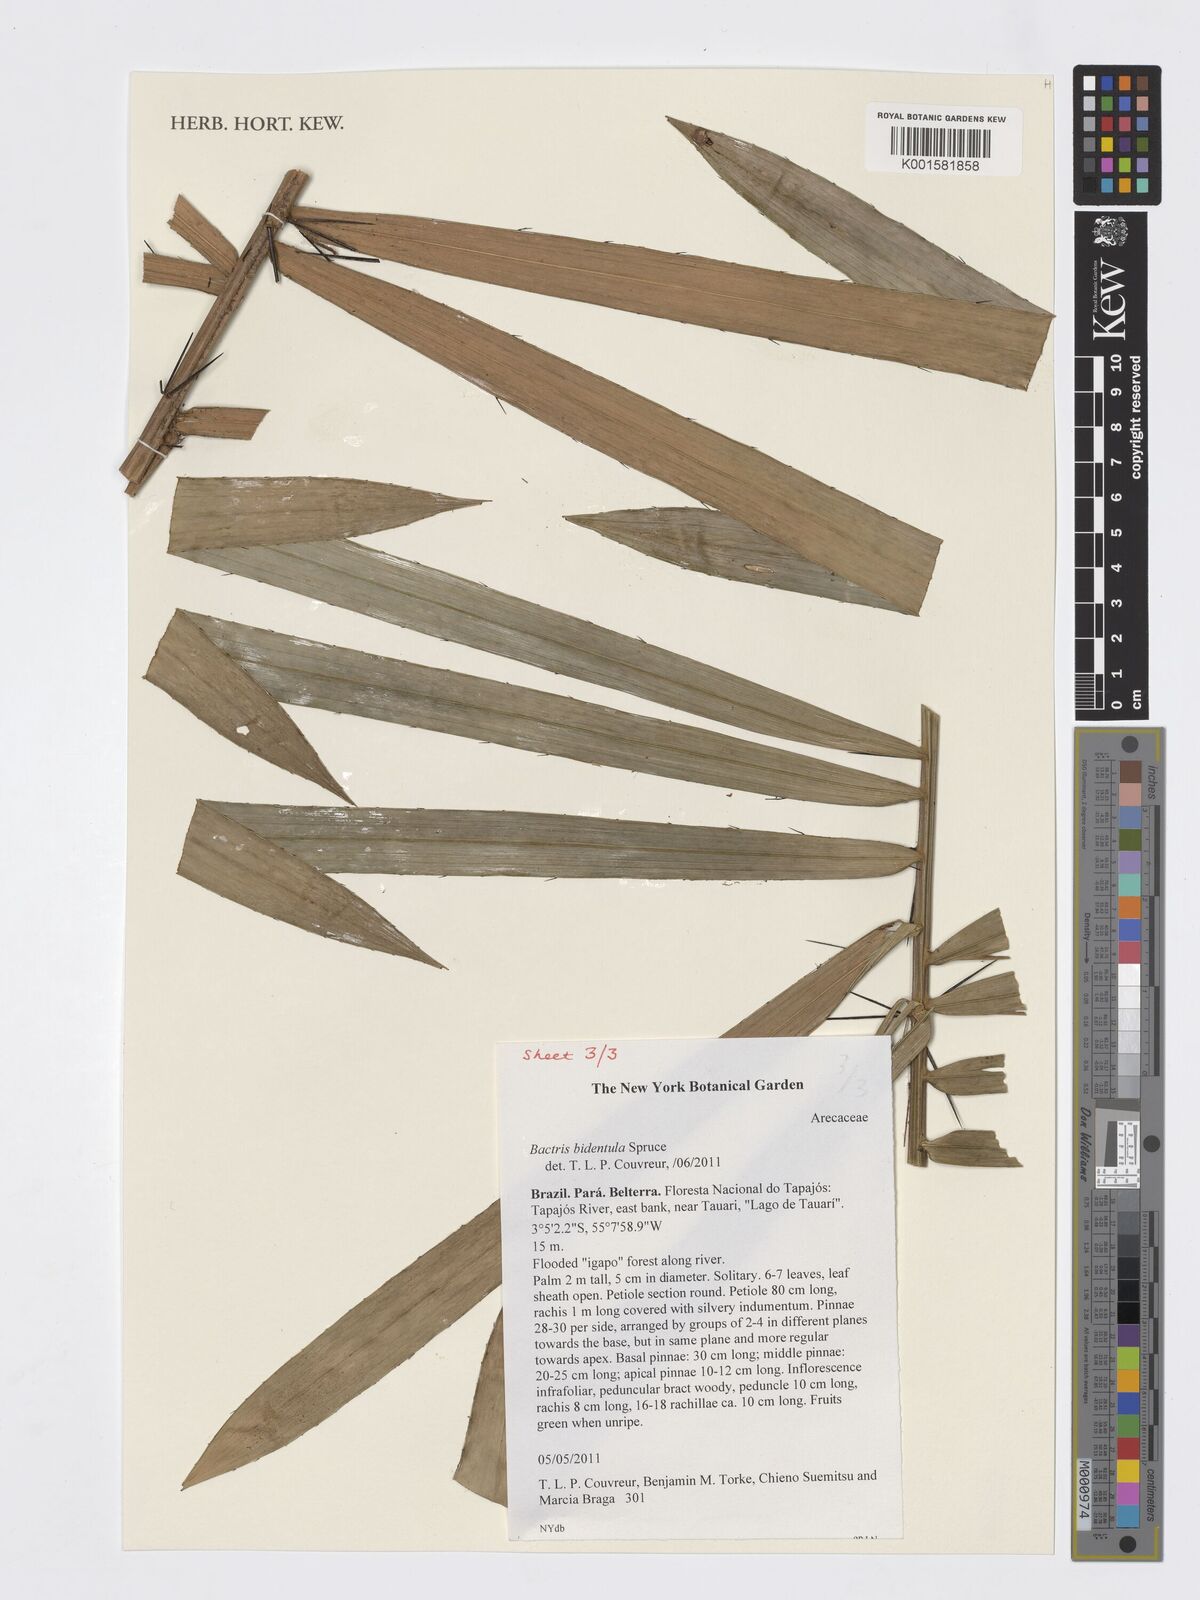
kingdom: Plantae
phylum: Tracheophyta
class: Liliopsida
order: Arecales
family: Arecaceae
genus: Bactris
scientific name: Bactris bidentula
